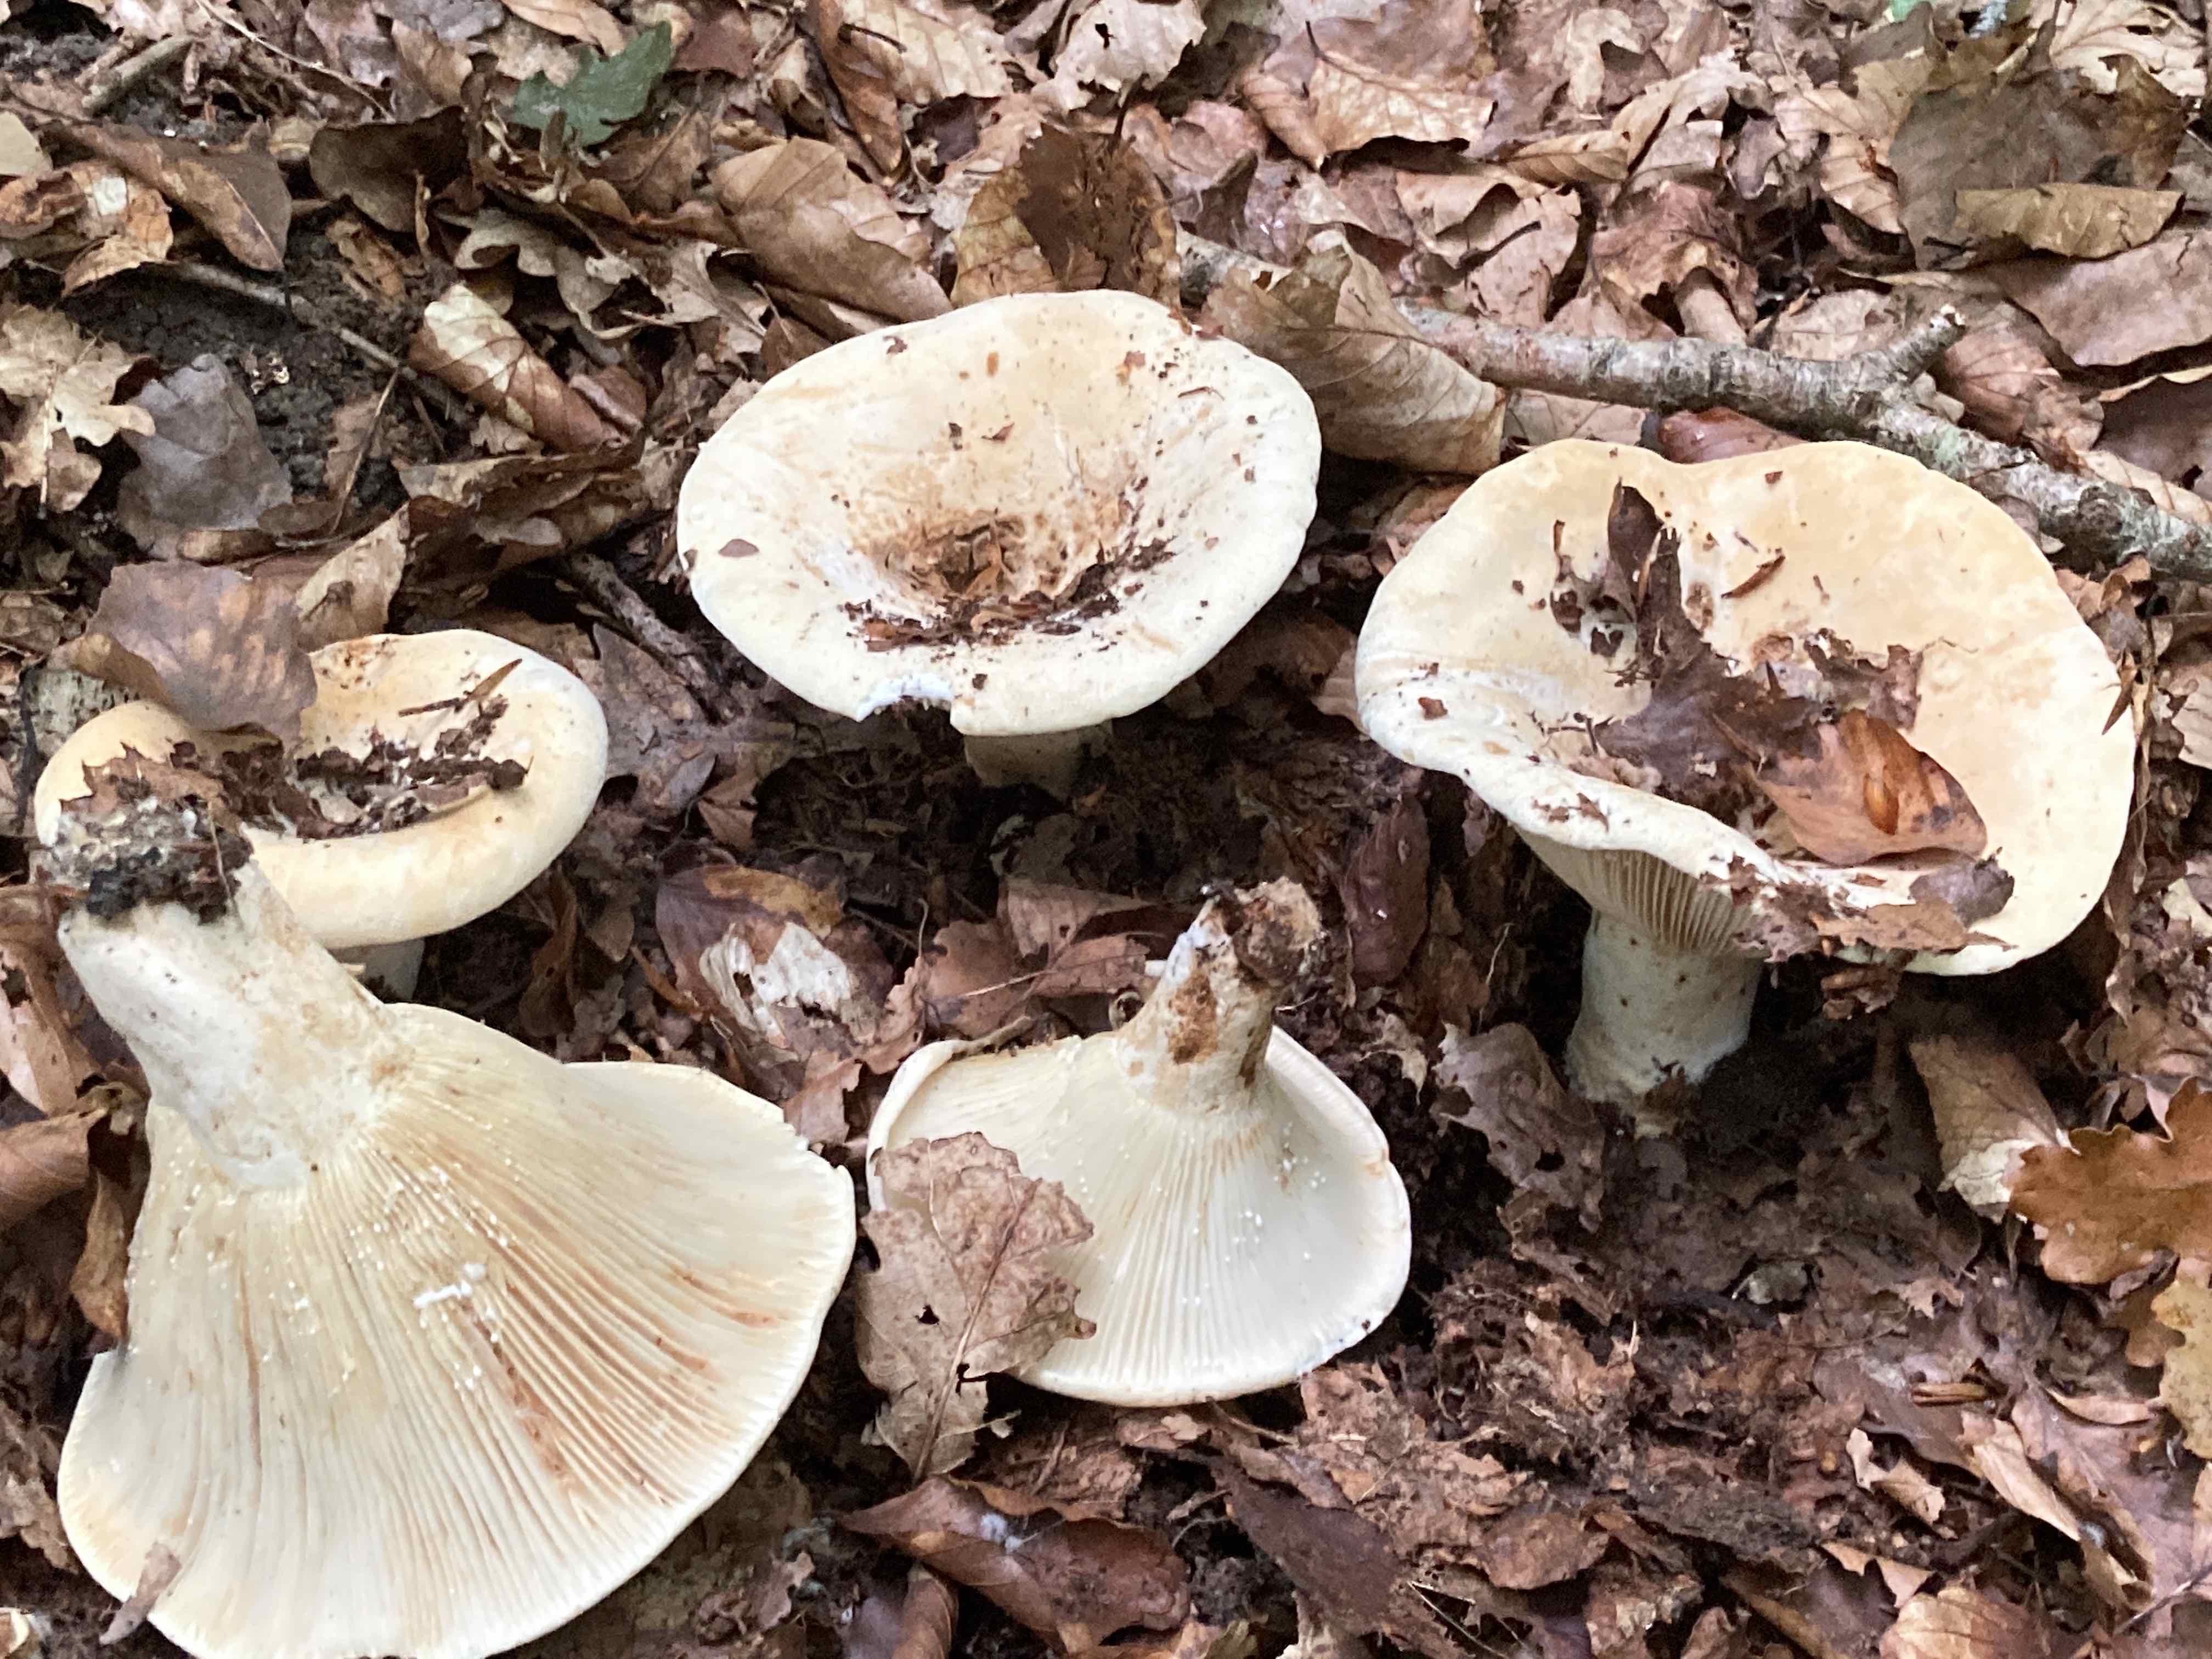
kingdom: Fungi
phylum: Basidiomycota
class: Agaricomycetes
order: Russulales
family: Russulaceae
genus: Lactifluus
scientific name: Lactifluus vellereus
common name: hvidfiltet mælkehat
